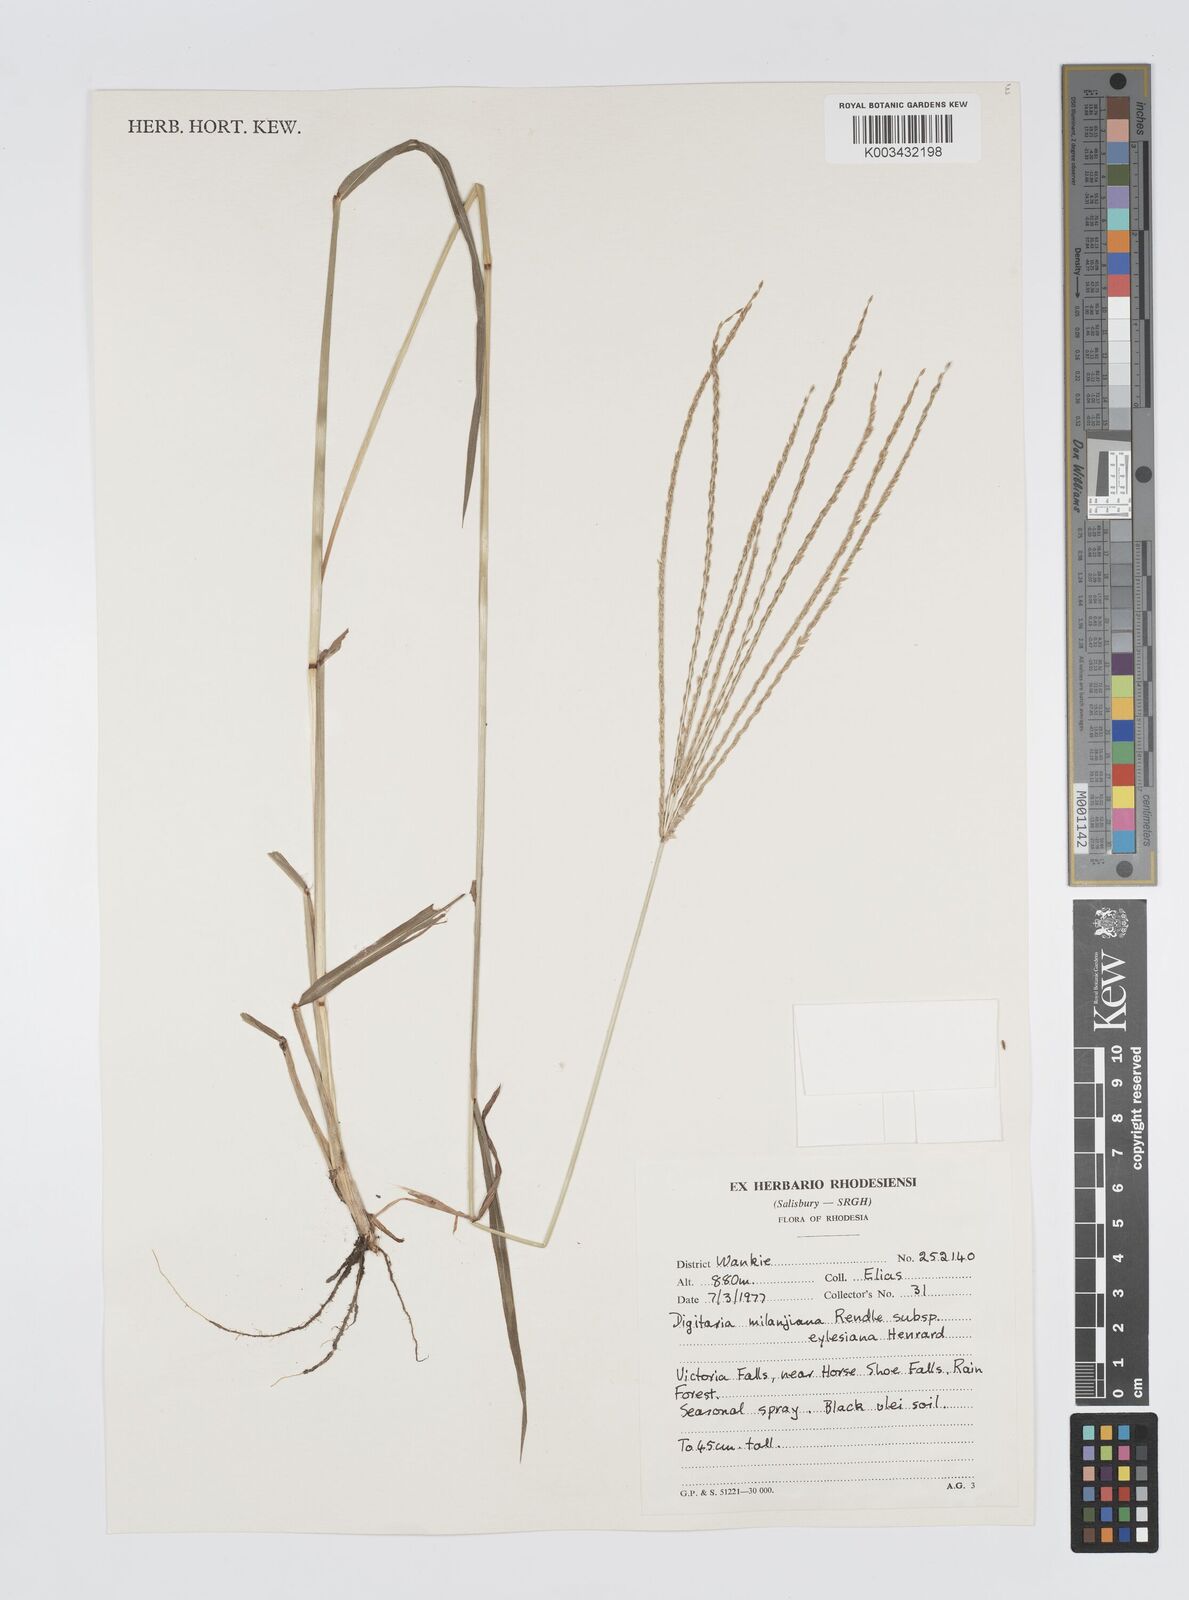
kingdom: Plantae
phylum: Tracheophyta
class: Liliopsida
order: Poales
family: Poaceae
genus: Digitaria
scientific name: Digitaria milanjiana
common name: Madagascar crabgrass
